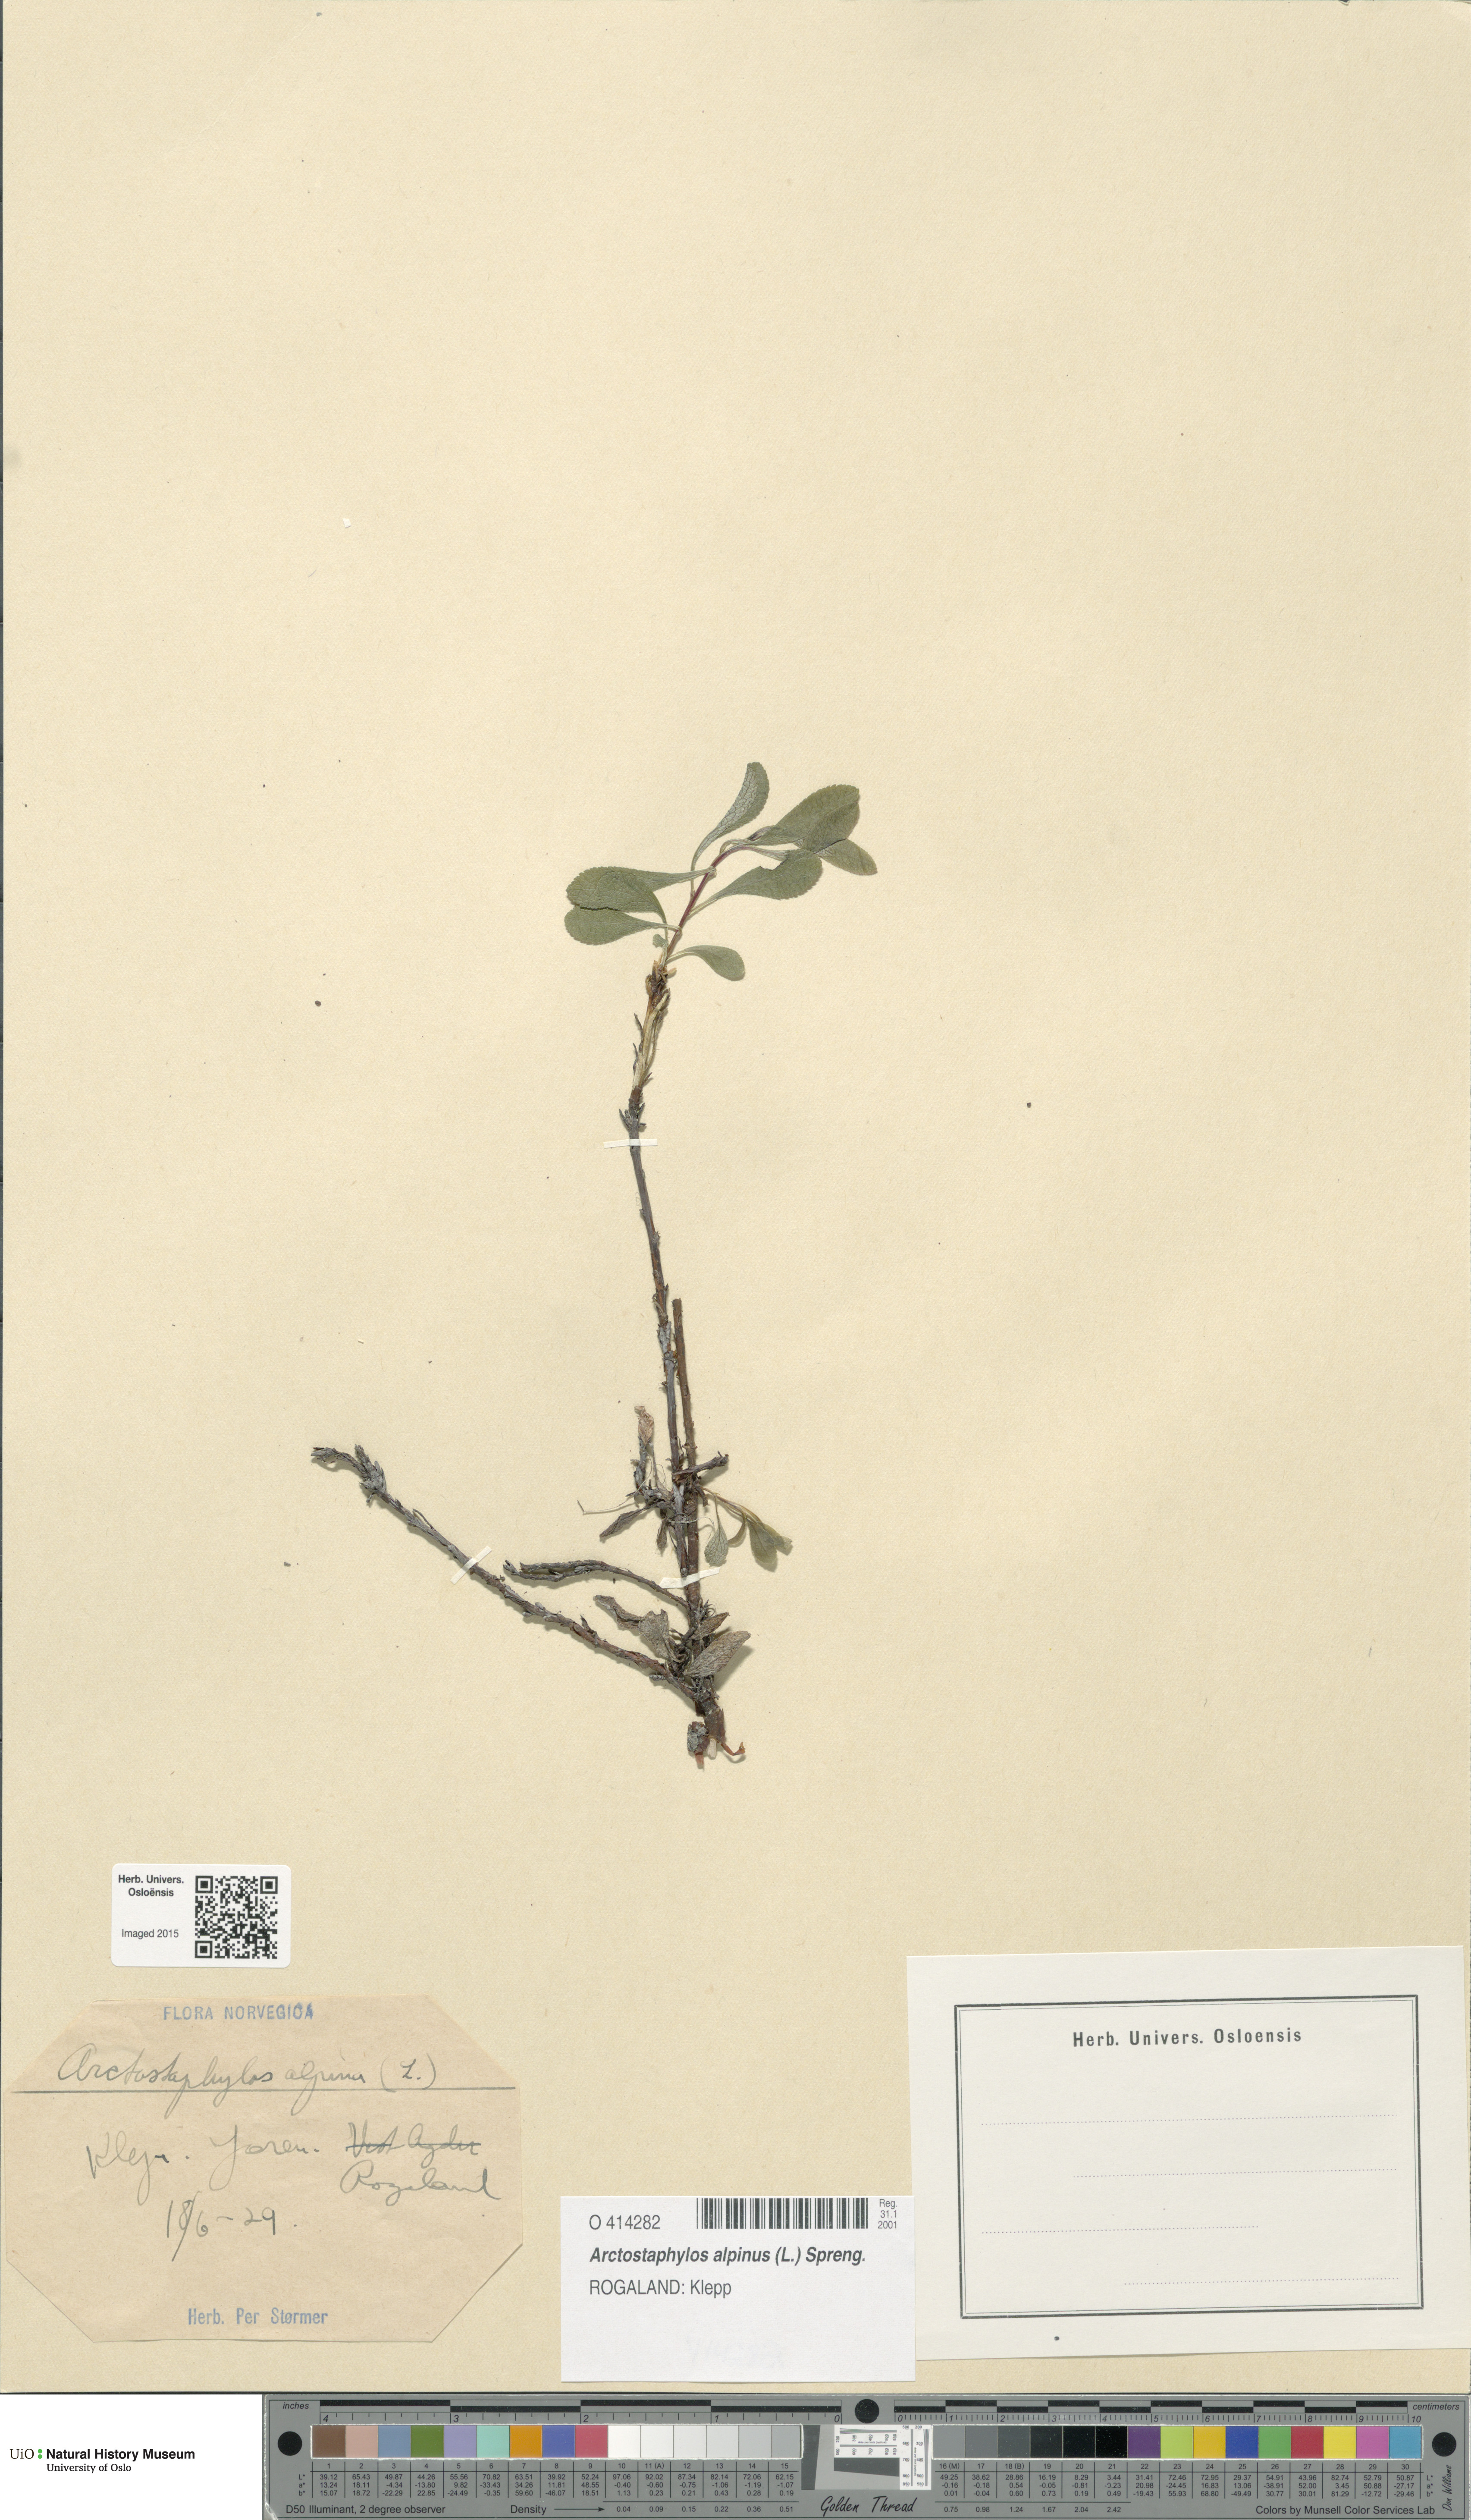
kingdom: Plantae
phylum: Tracheophyta
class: Magnoliopsida
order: Ericales
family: Ericaceae
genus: Arctostaphylos
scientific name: Arctostaphylos alpinus
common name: Alpine bearberry
